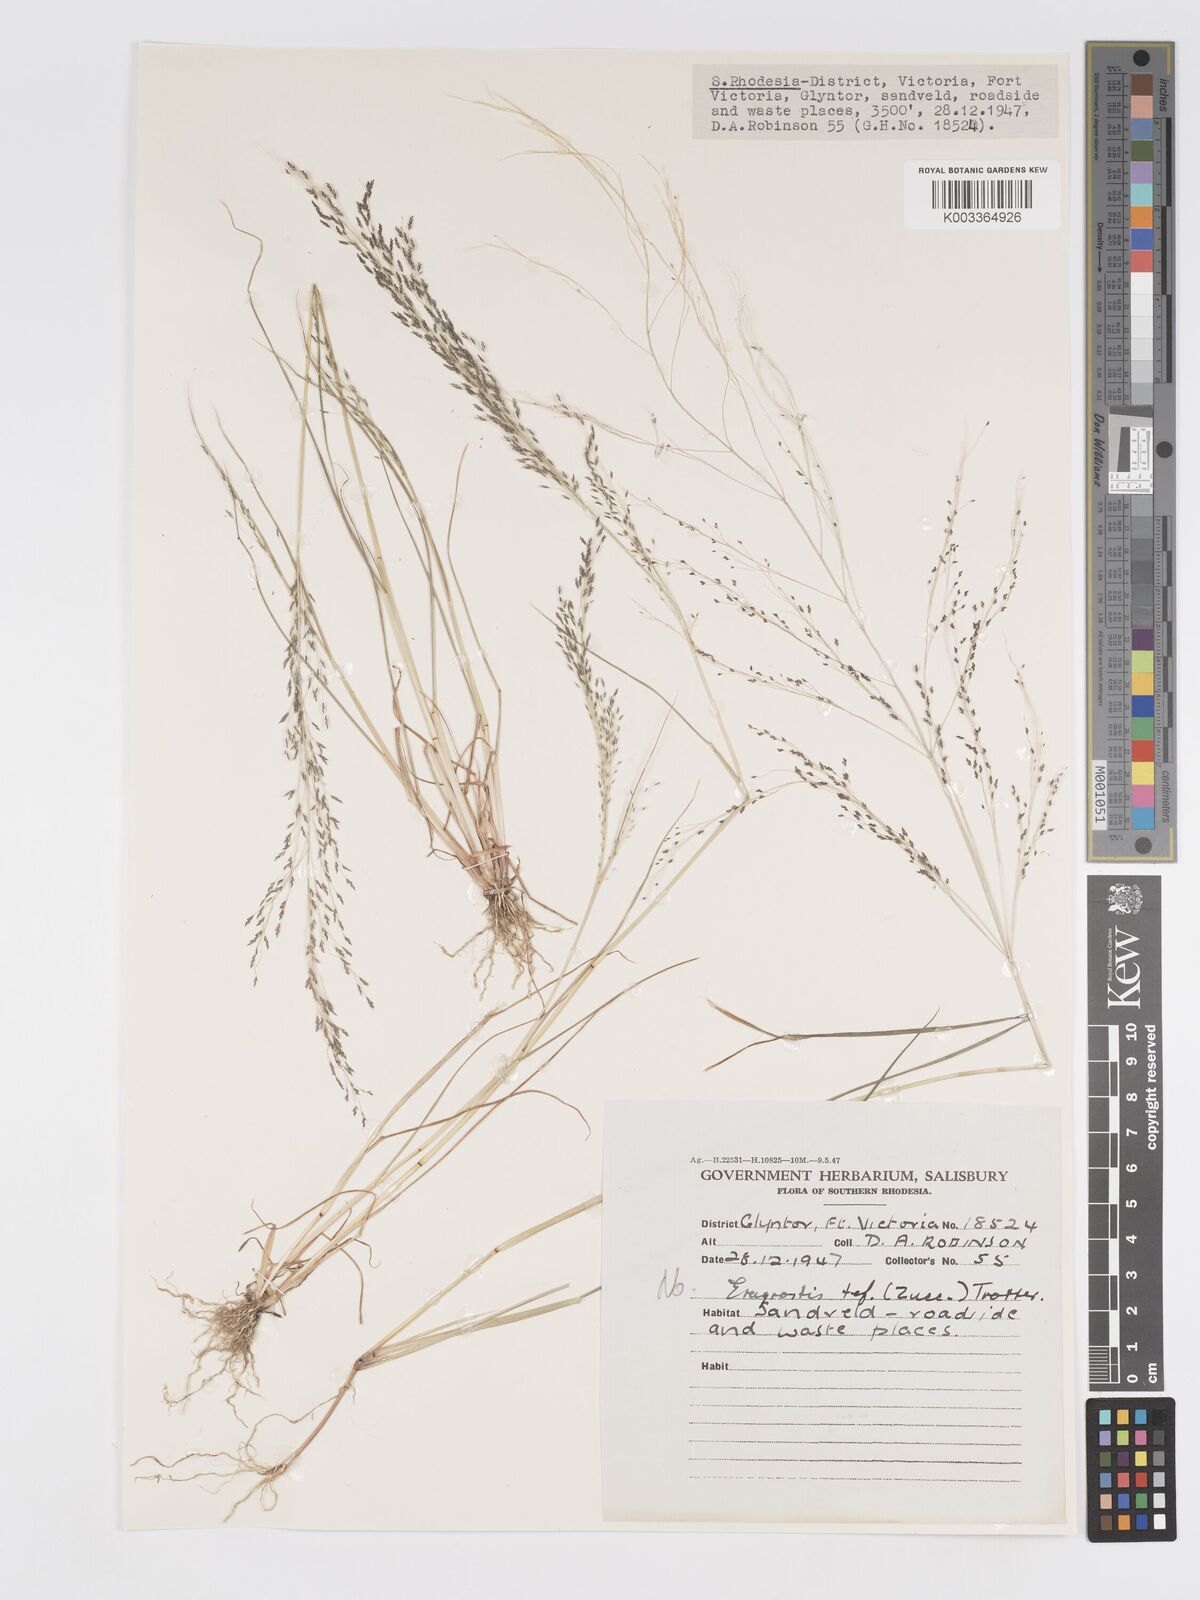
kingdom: Plantae
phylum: Tracheophyta
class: Liliopsida
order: Poales
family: Poaceae
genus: Eragrostis
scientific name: Eragrostis pilosa
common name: Indian lovegrass
